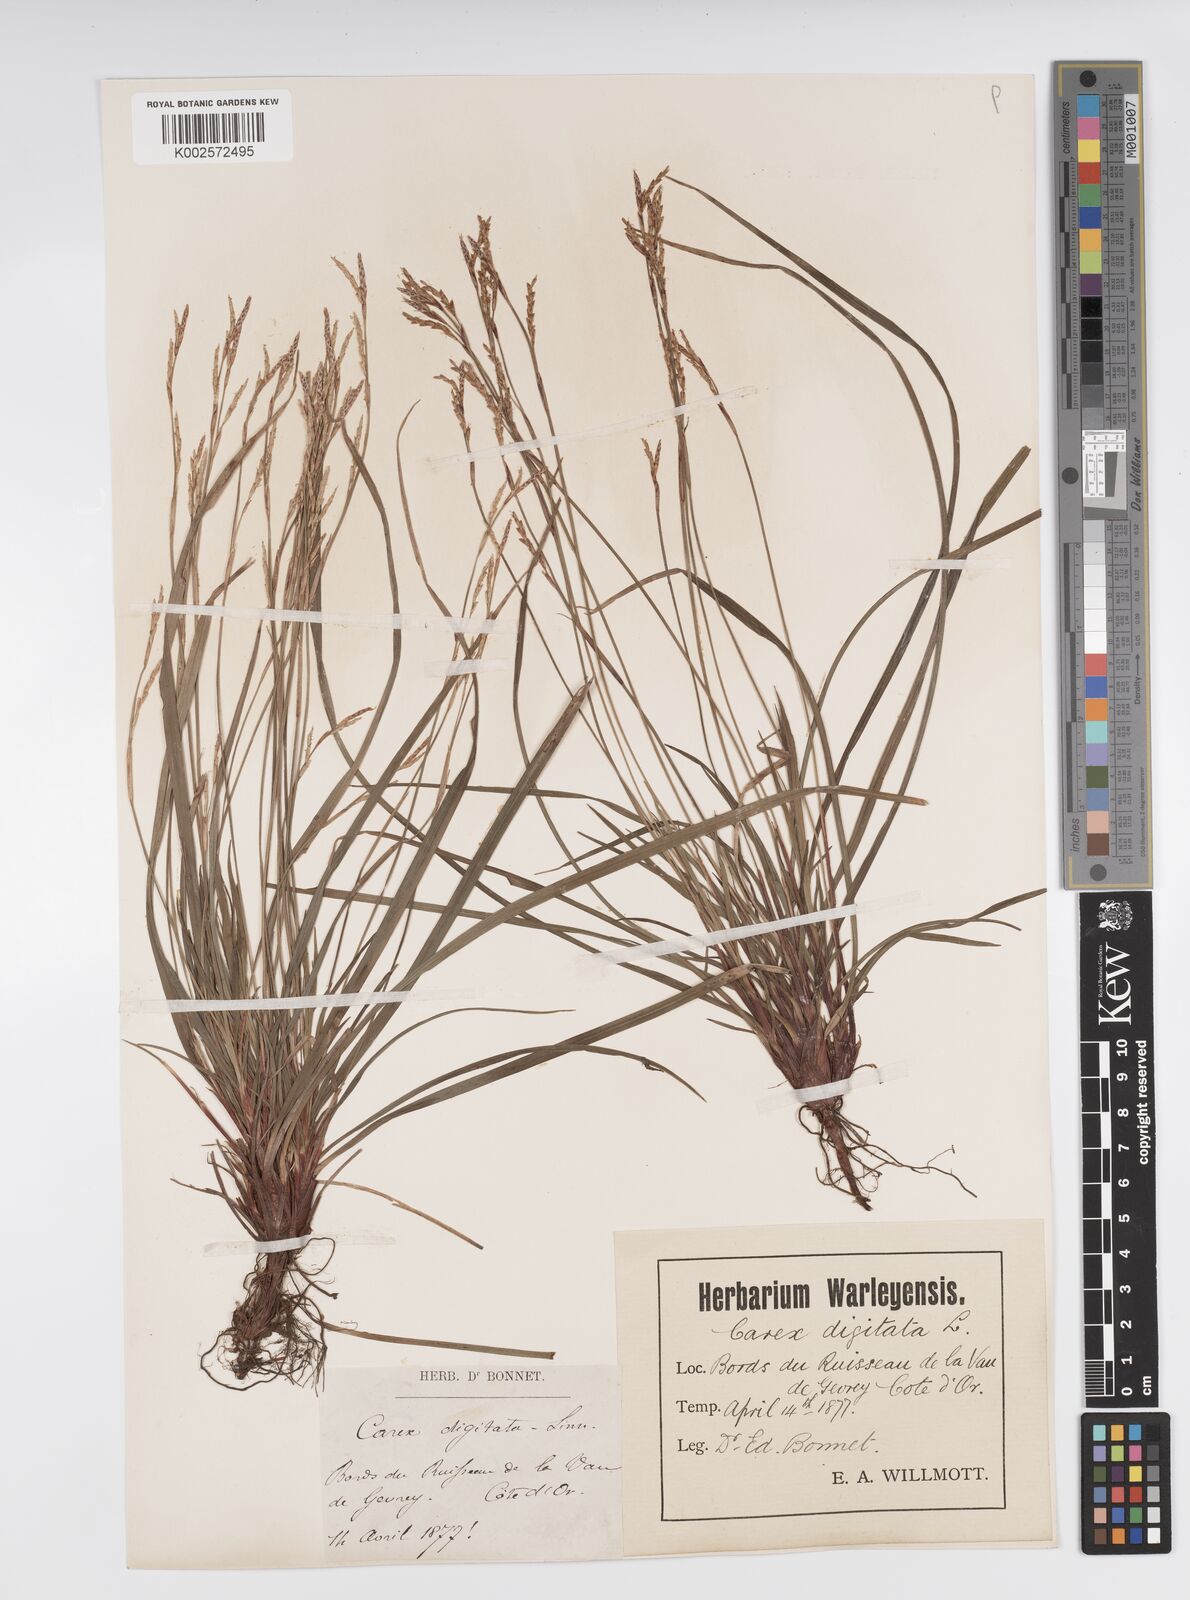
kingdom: Plantae
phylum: Tracheophyta
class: Liliopsida
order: Poales
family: Cyperaceae
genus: Carex
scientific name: Carex digitata
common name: Fingered sedge
